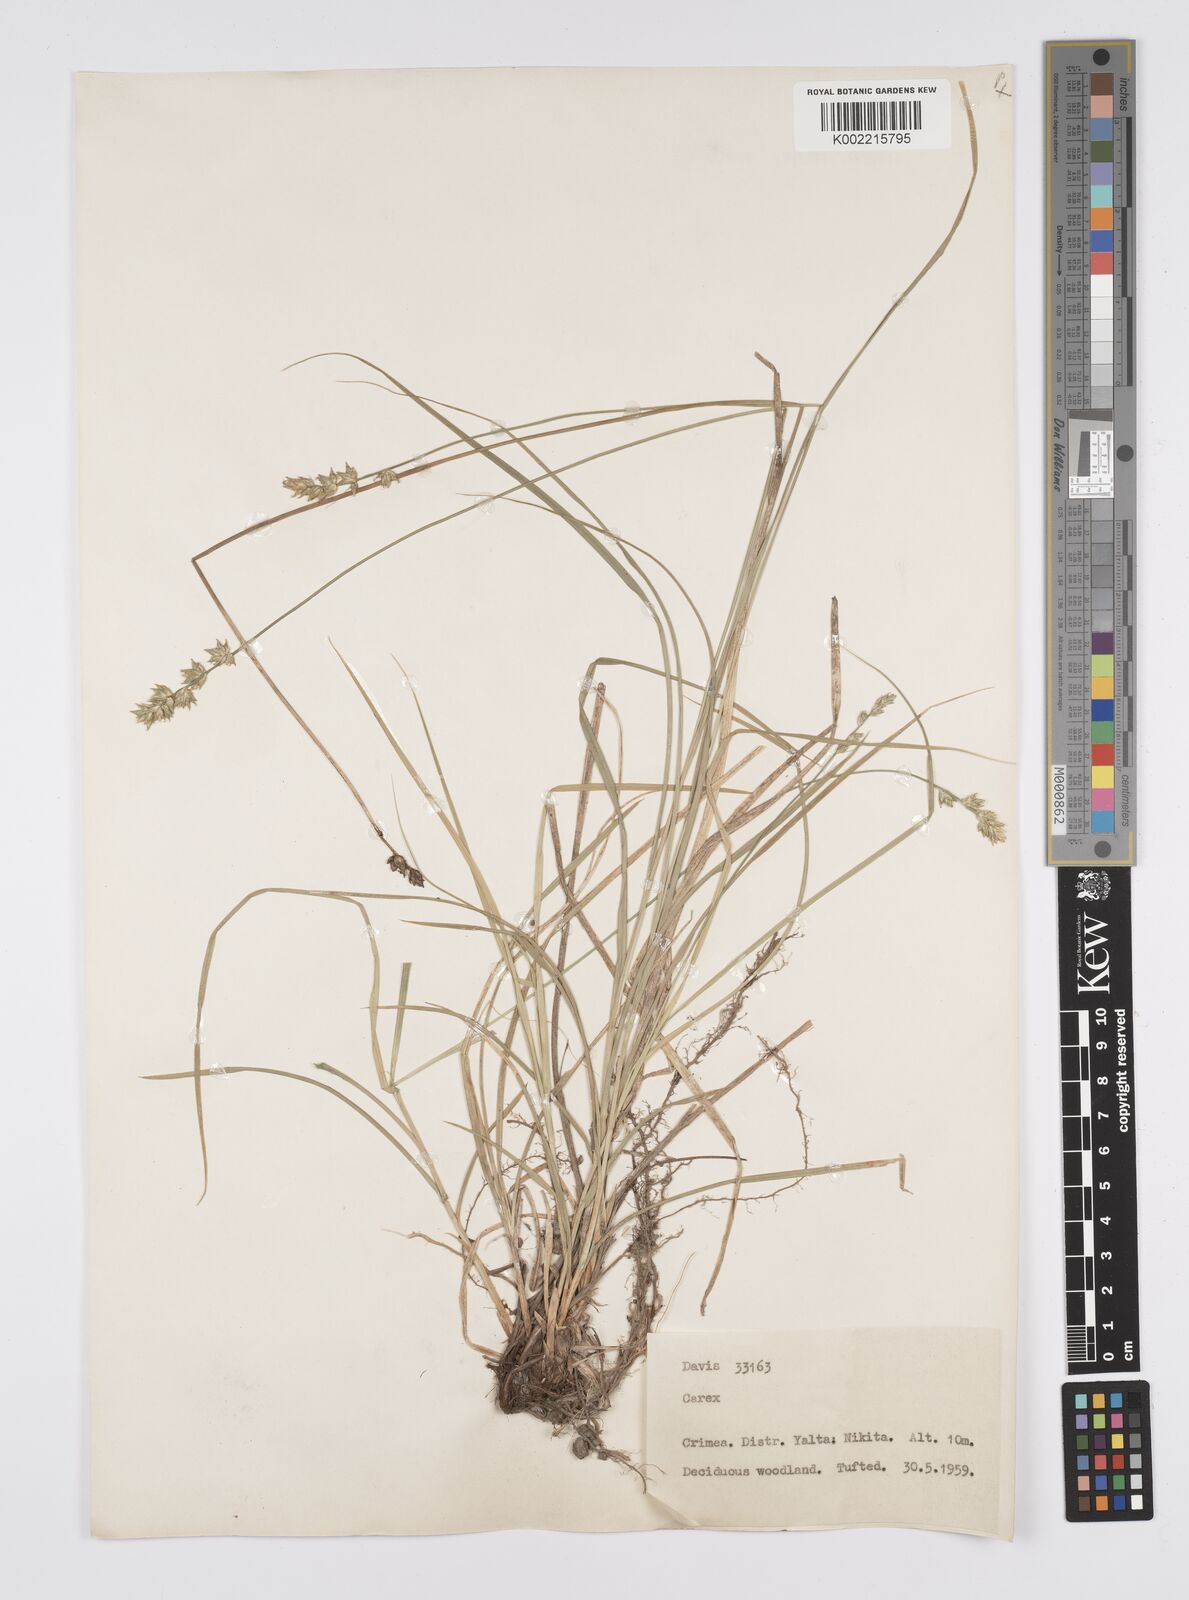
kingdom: Plantae
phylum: Tracheophyta
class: Liliopsida
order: Poales
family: Cyperaceae
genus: Carex
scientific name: Carex
